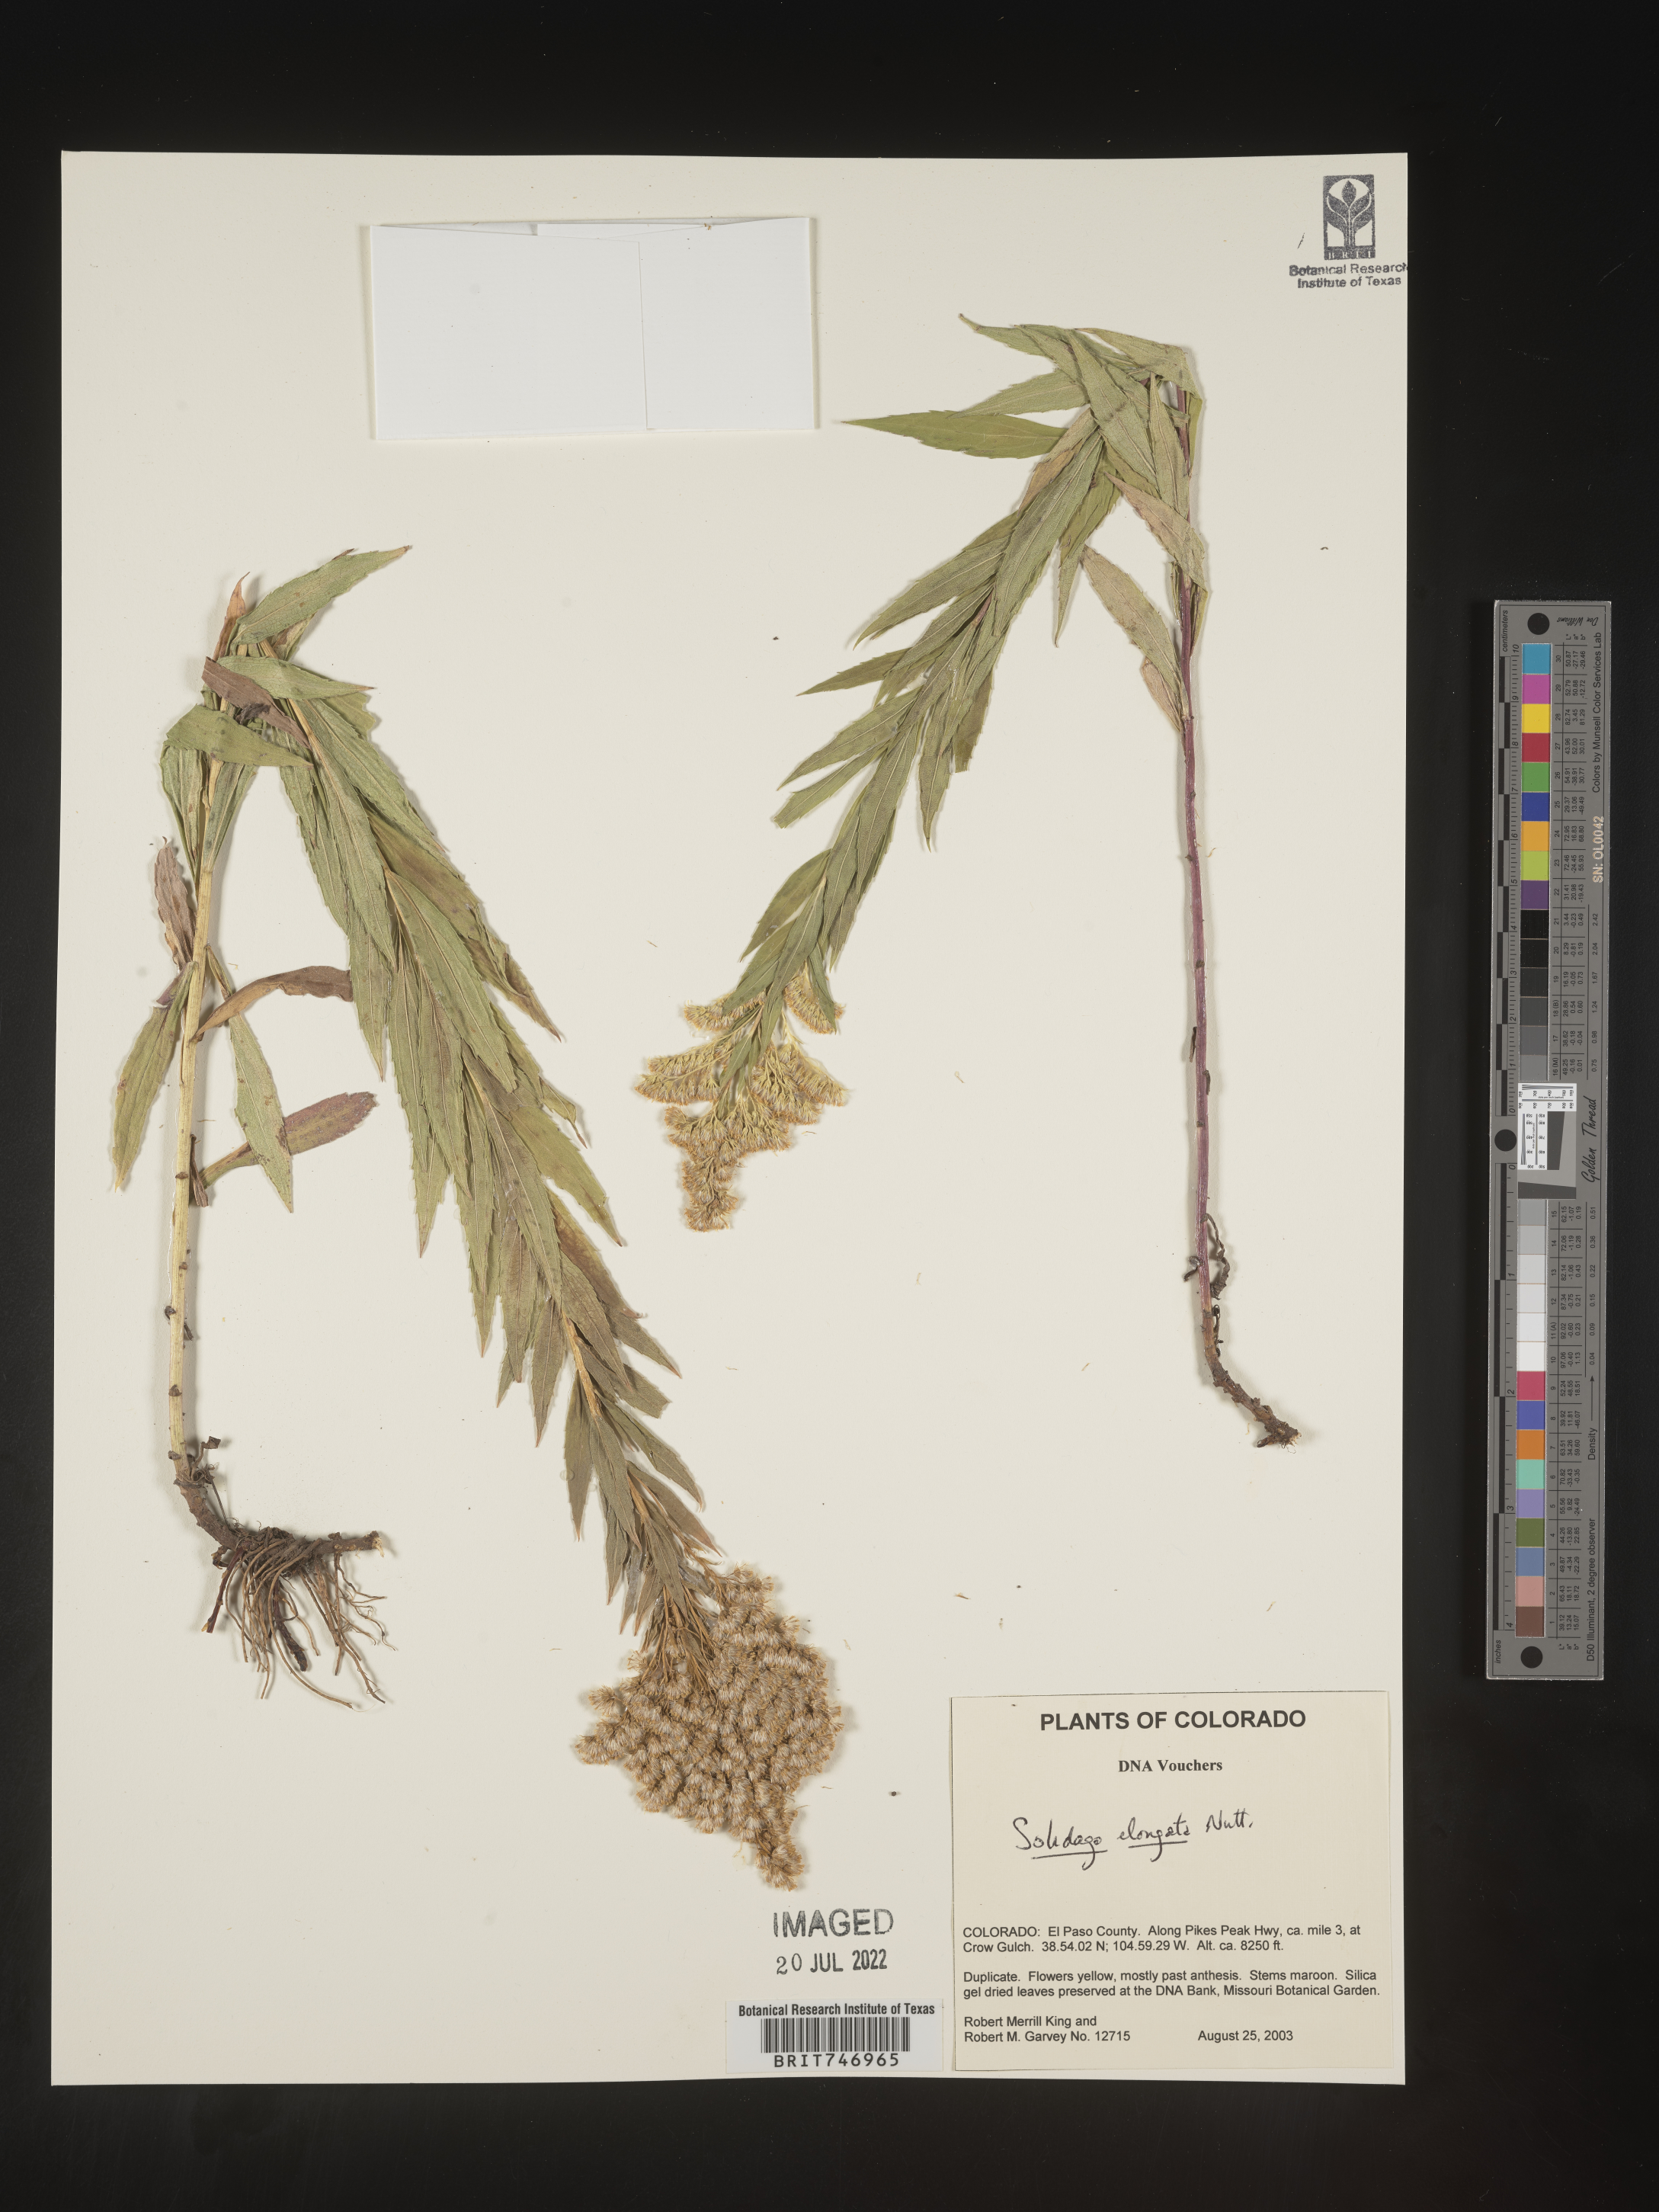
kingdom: Plantae
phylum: Tracheophyta
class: Magnoliopsida
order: Asterales
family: Asteraceae
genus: Solidago
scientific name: Solidago lepida
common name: Western canada goldenrod
